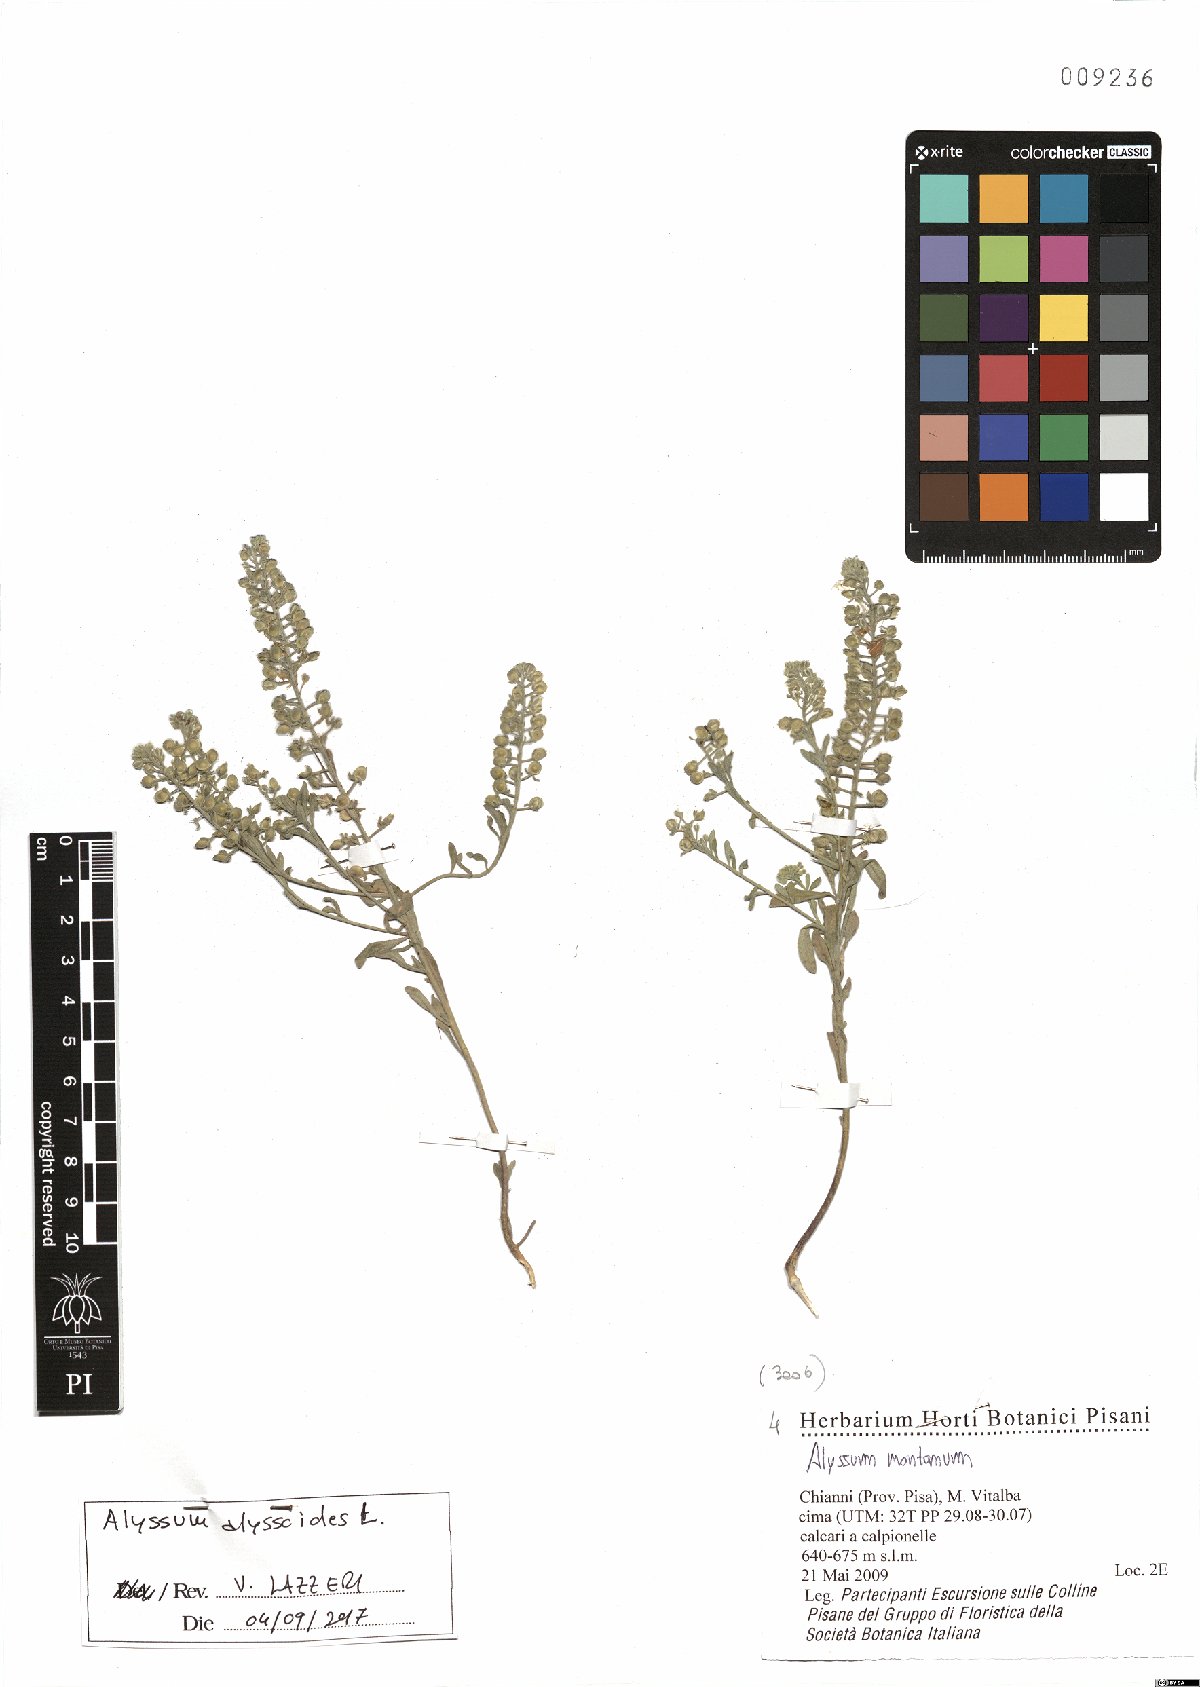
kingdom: Plantae
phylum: Tracheophyta
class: Magnoliopsida
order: Brassicales
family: Brassicaceae
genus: Alyssum
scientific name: Alyssum alyssoides
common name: Small alison
